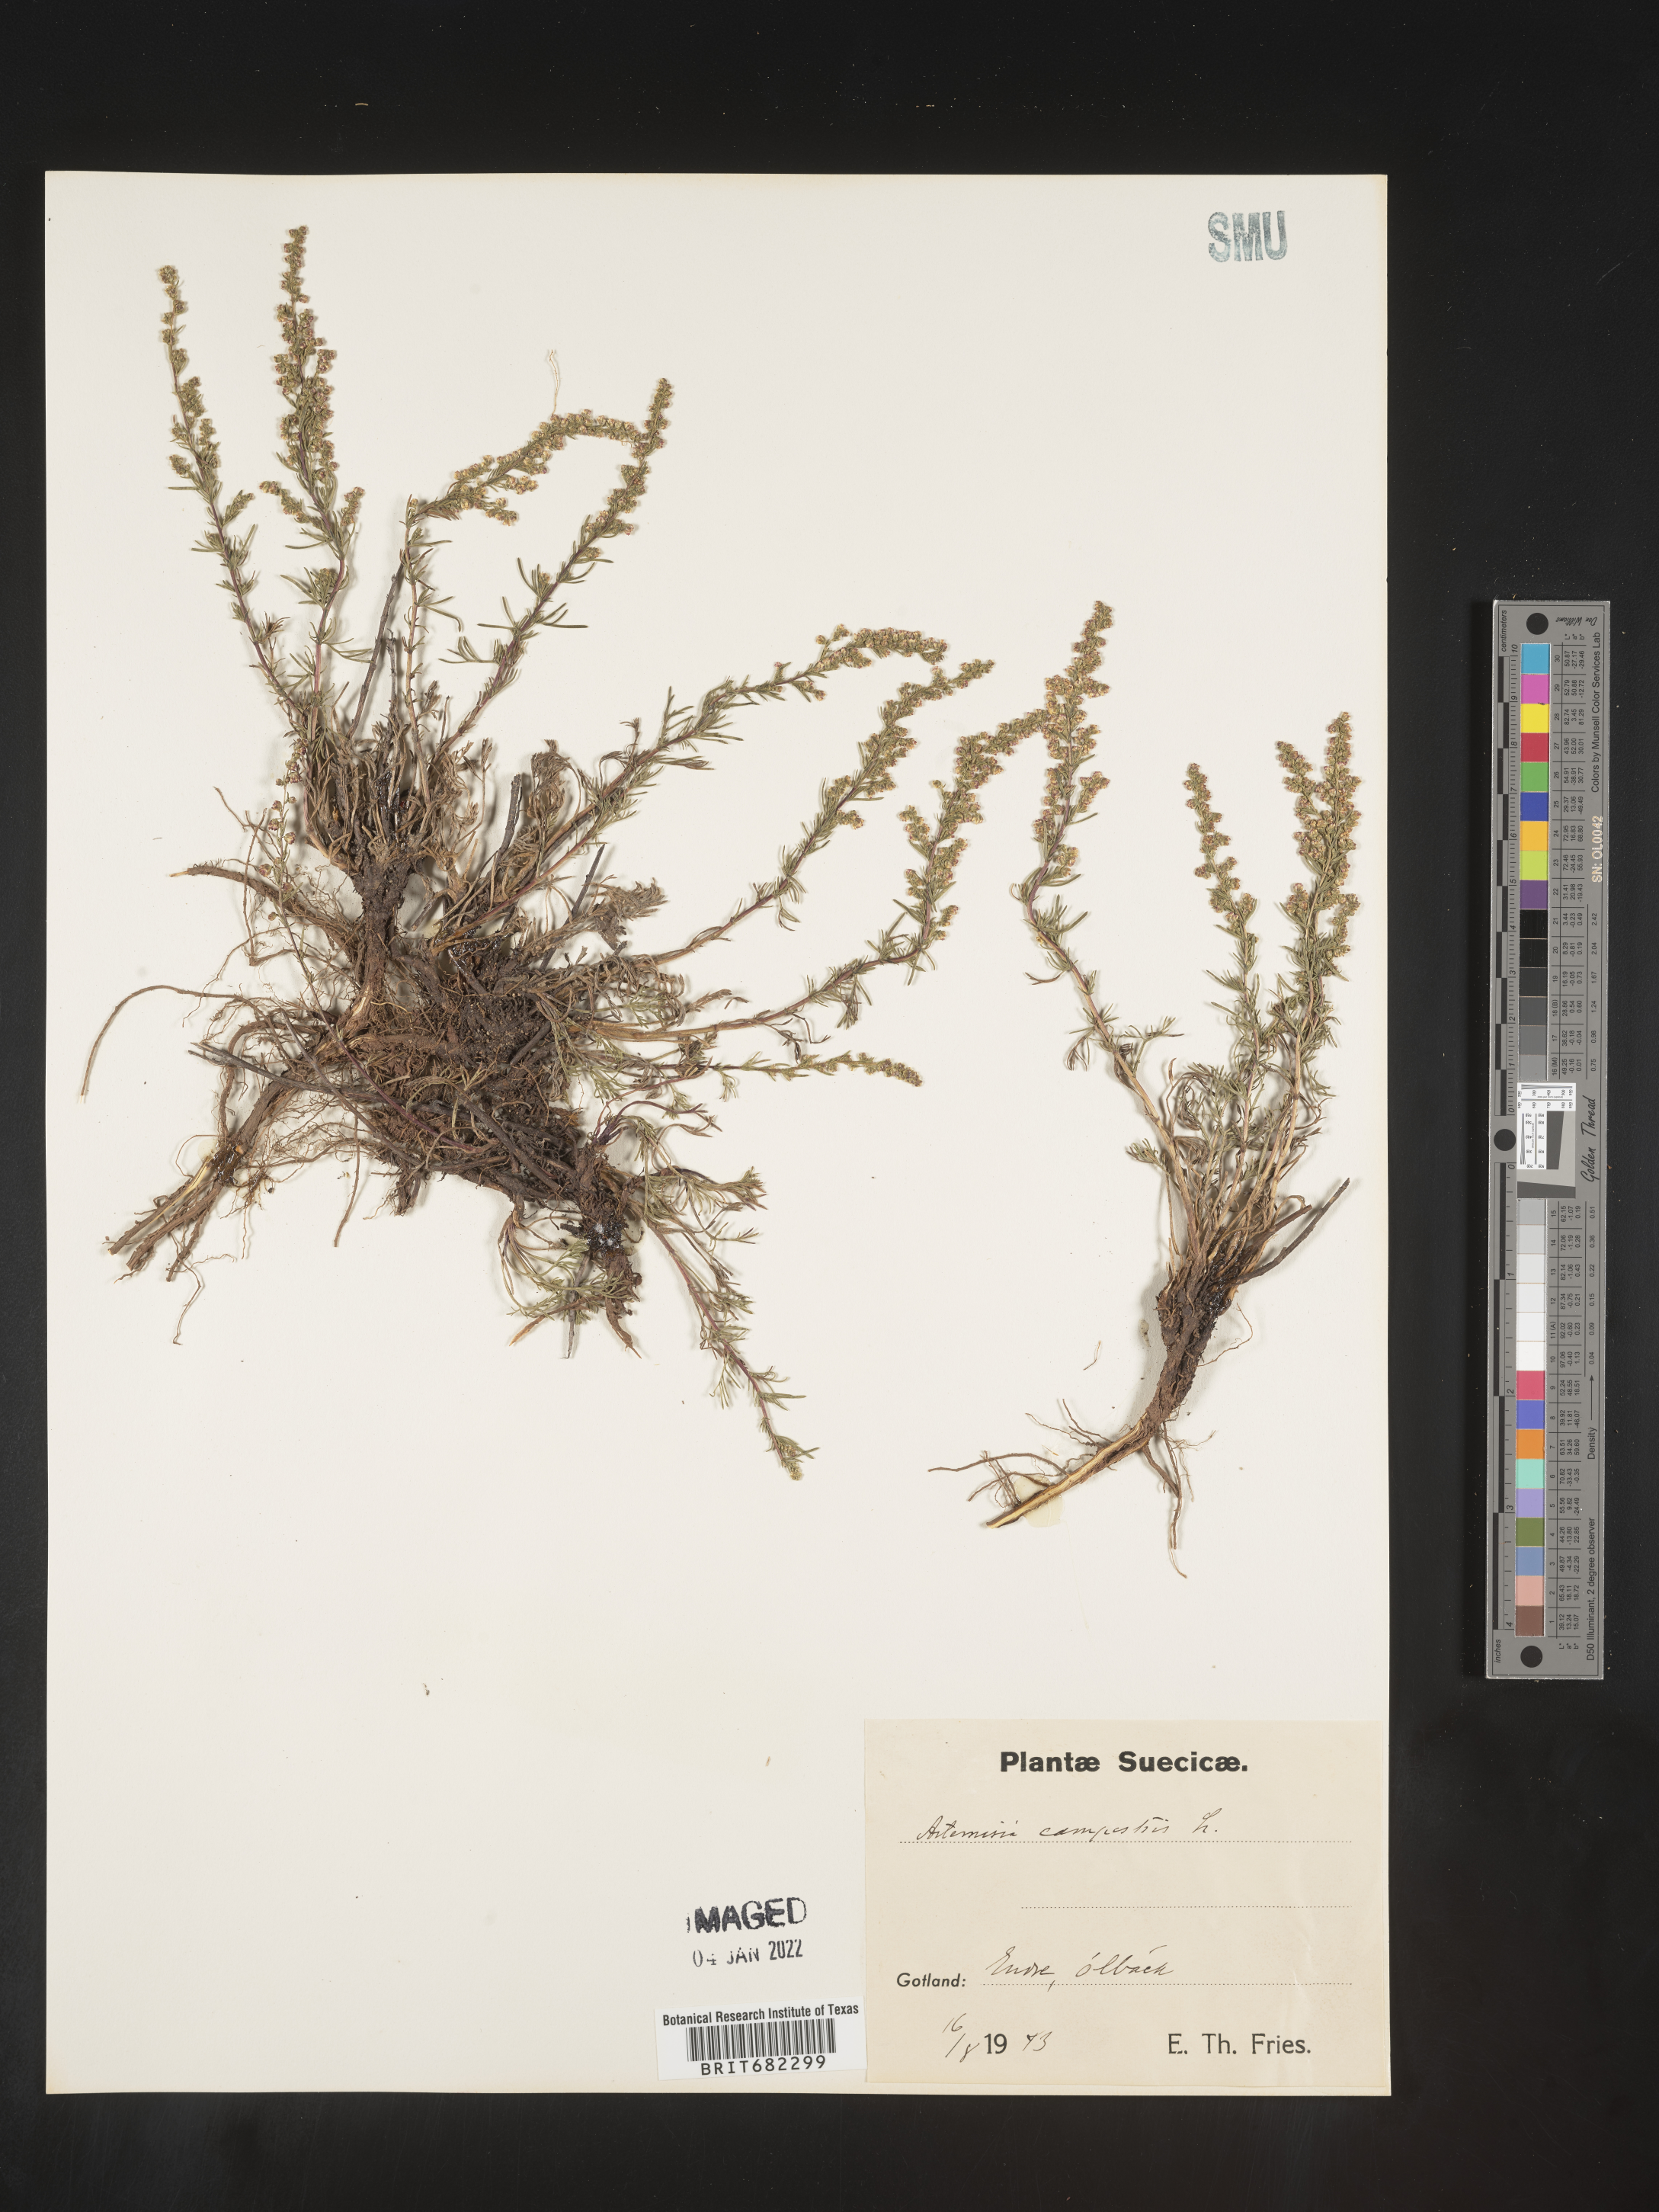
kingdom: Plantae
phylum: Tracheophyta
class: Magnoliopsida
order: Asterales
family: Asteraceae
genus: Artemisia
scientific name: Artemisia campestris
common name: Field wormwood
